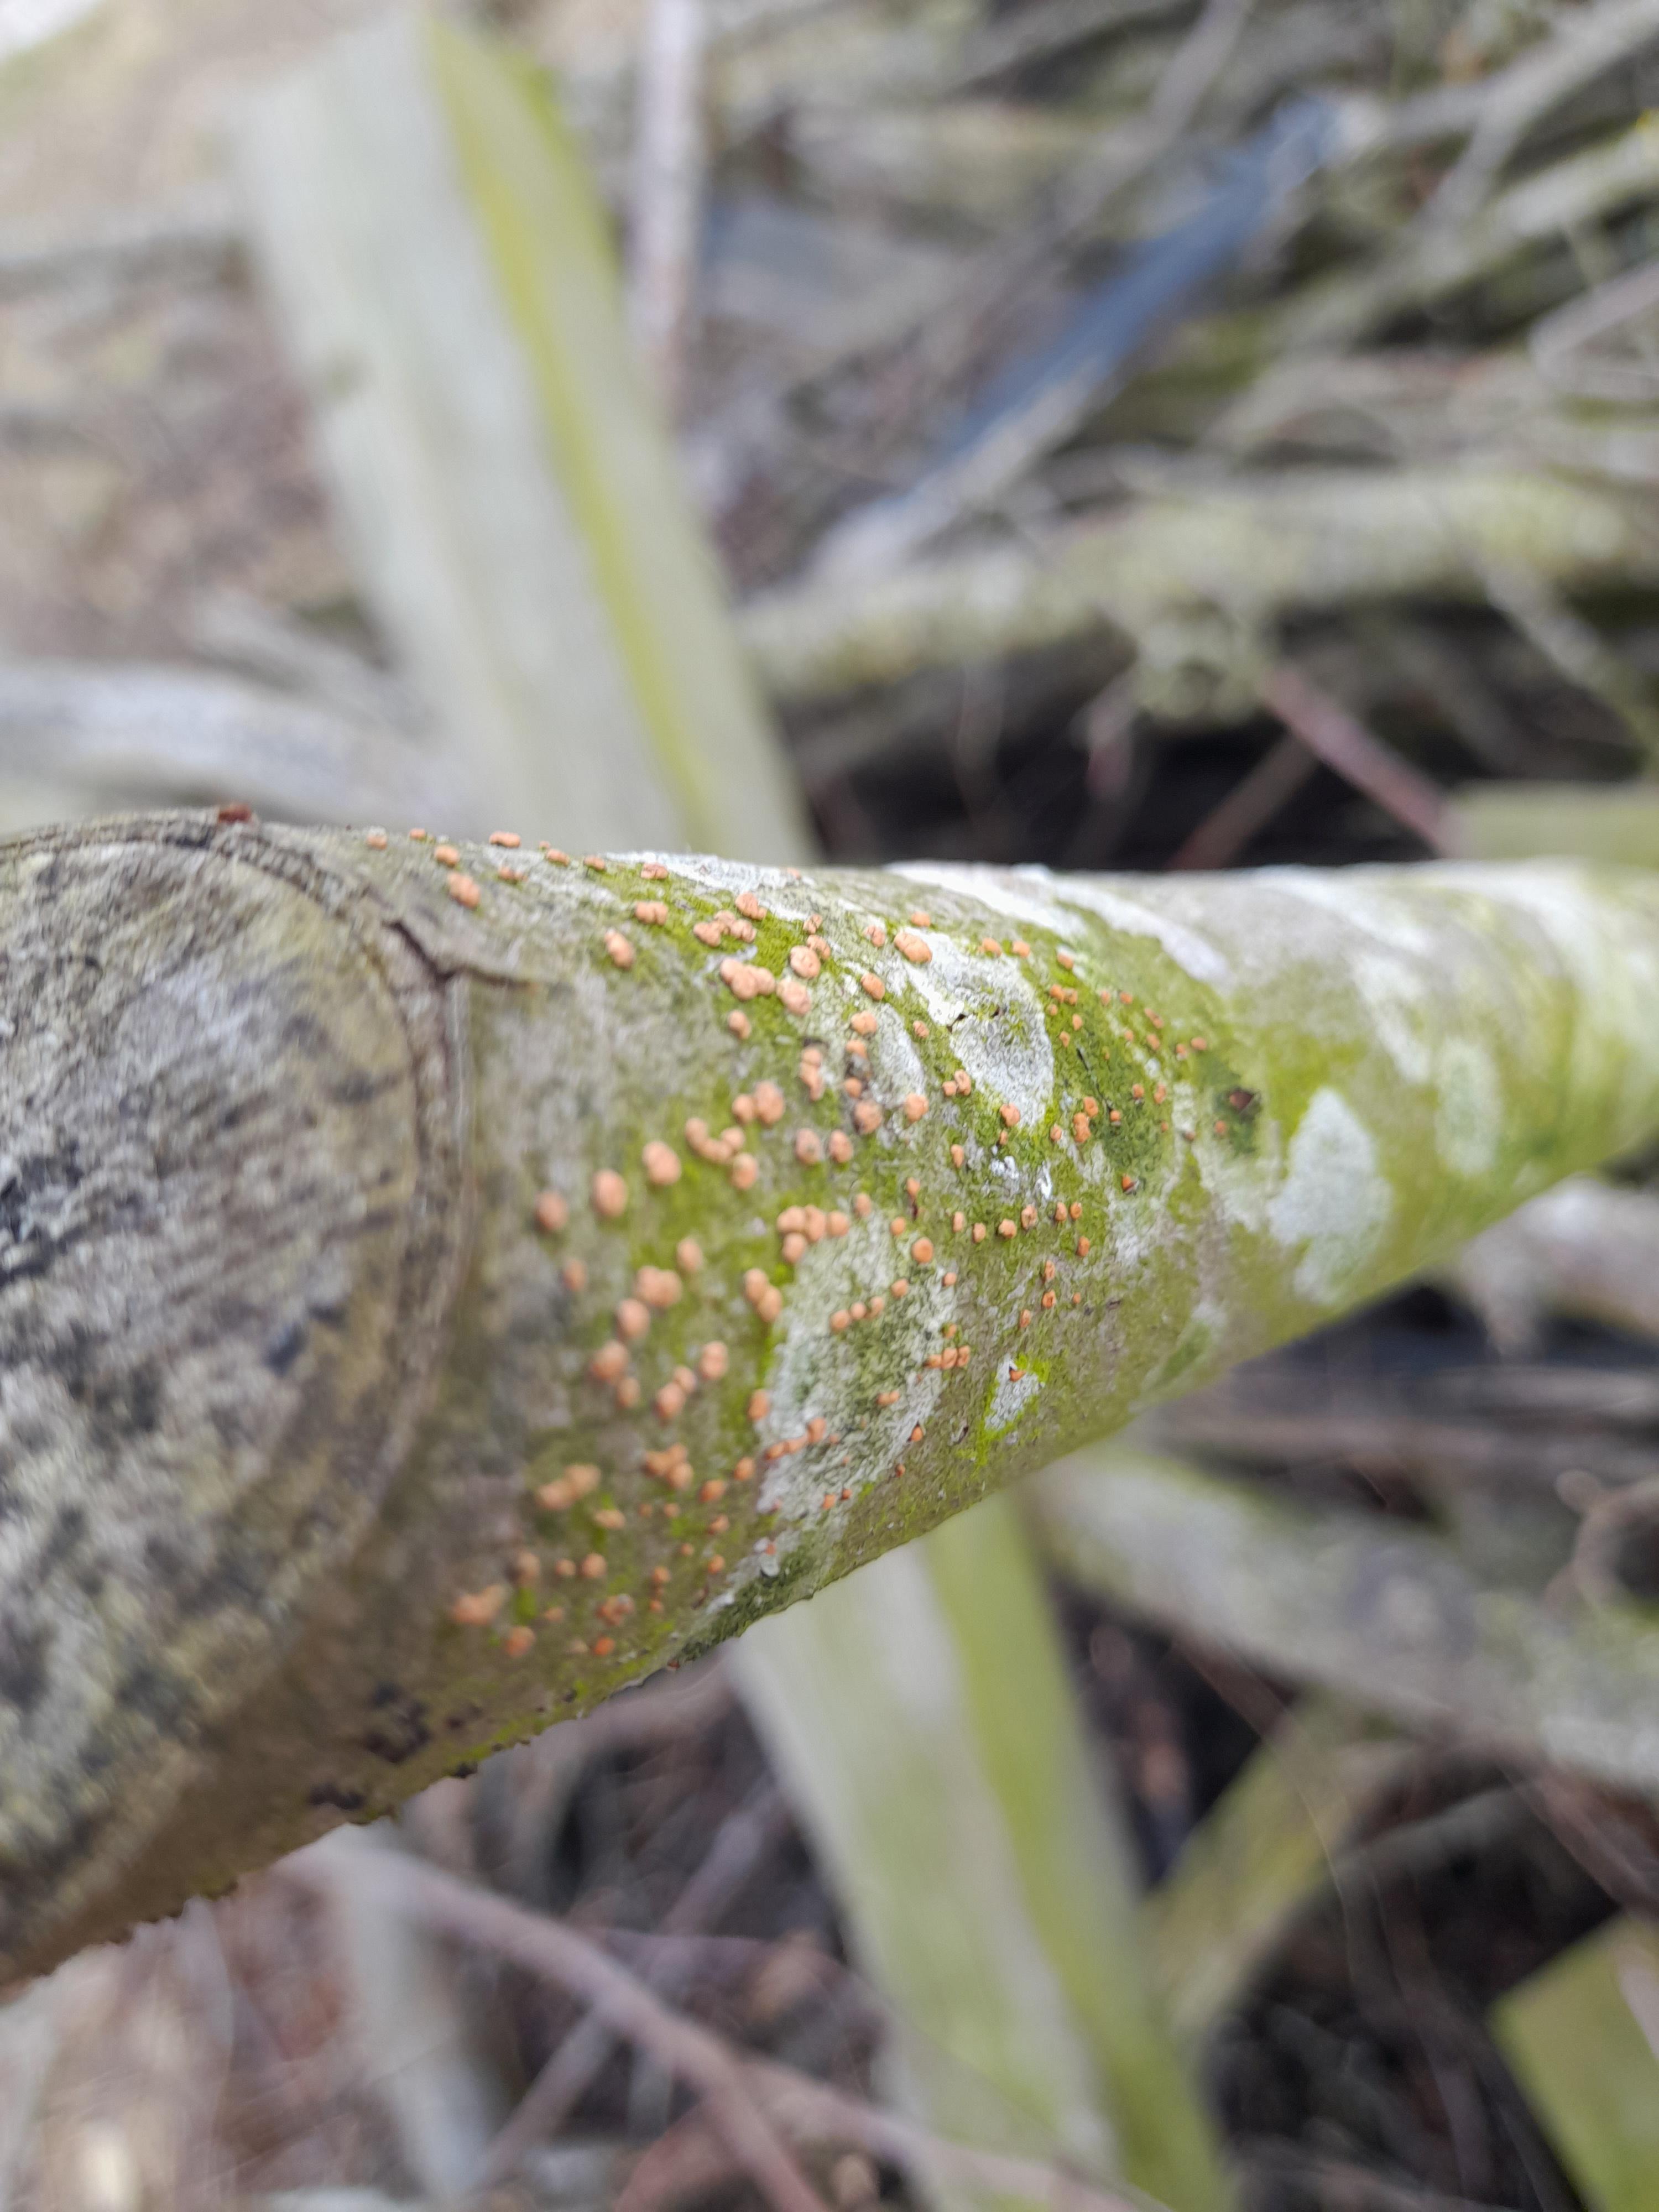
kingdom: Fungi
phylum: Ascomycota
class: Sordariomycetes
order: Hypocreales
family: Nectriaceae
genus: Nectria
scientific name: Nectria cinnabarina
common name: almindelig cinnobersvamp
